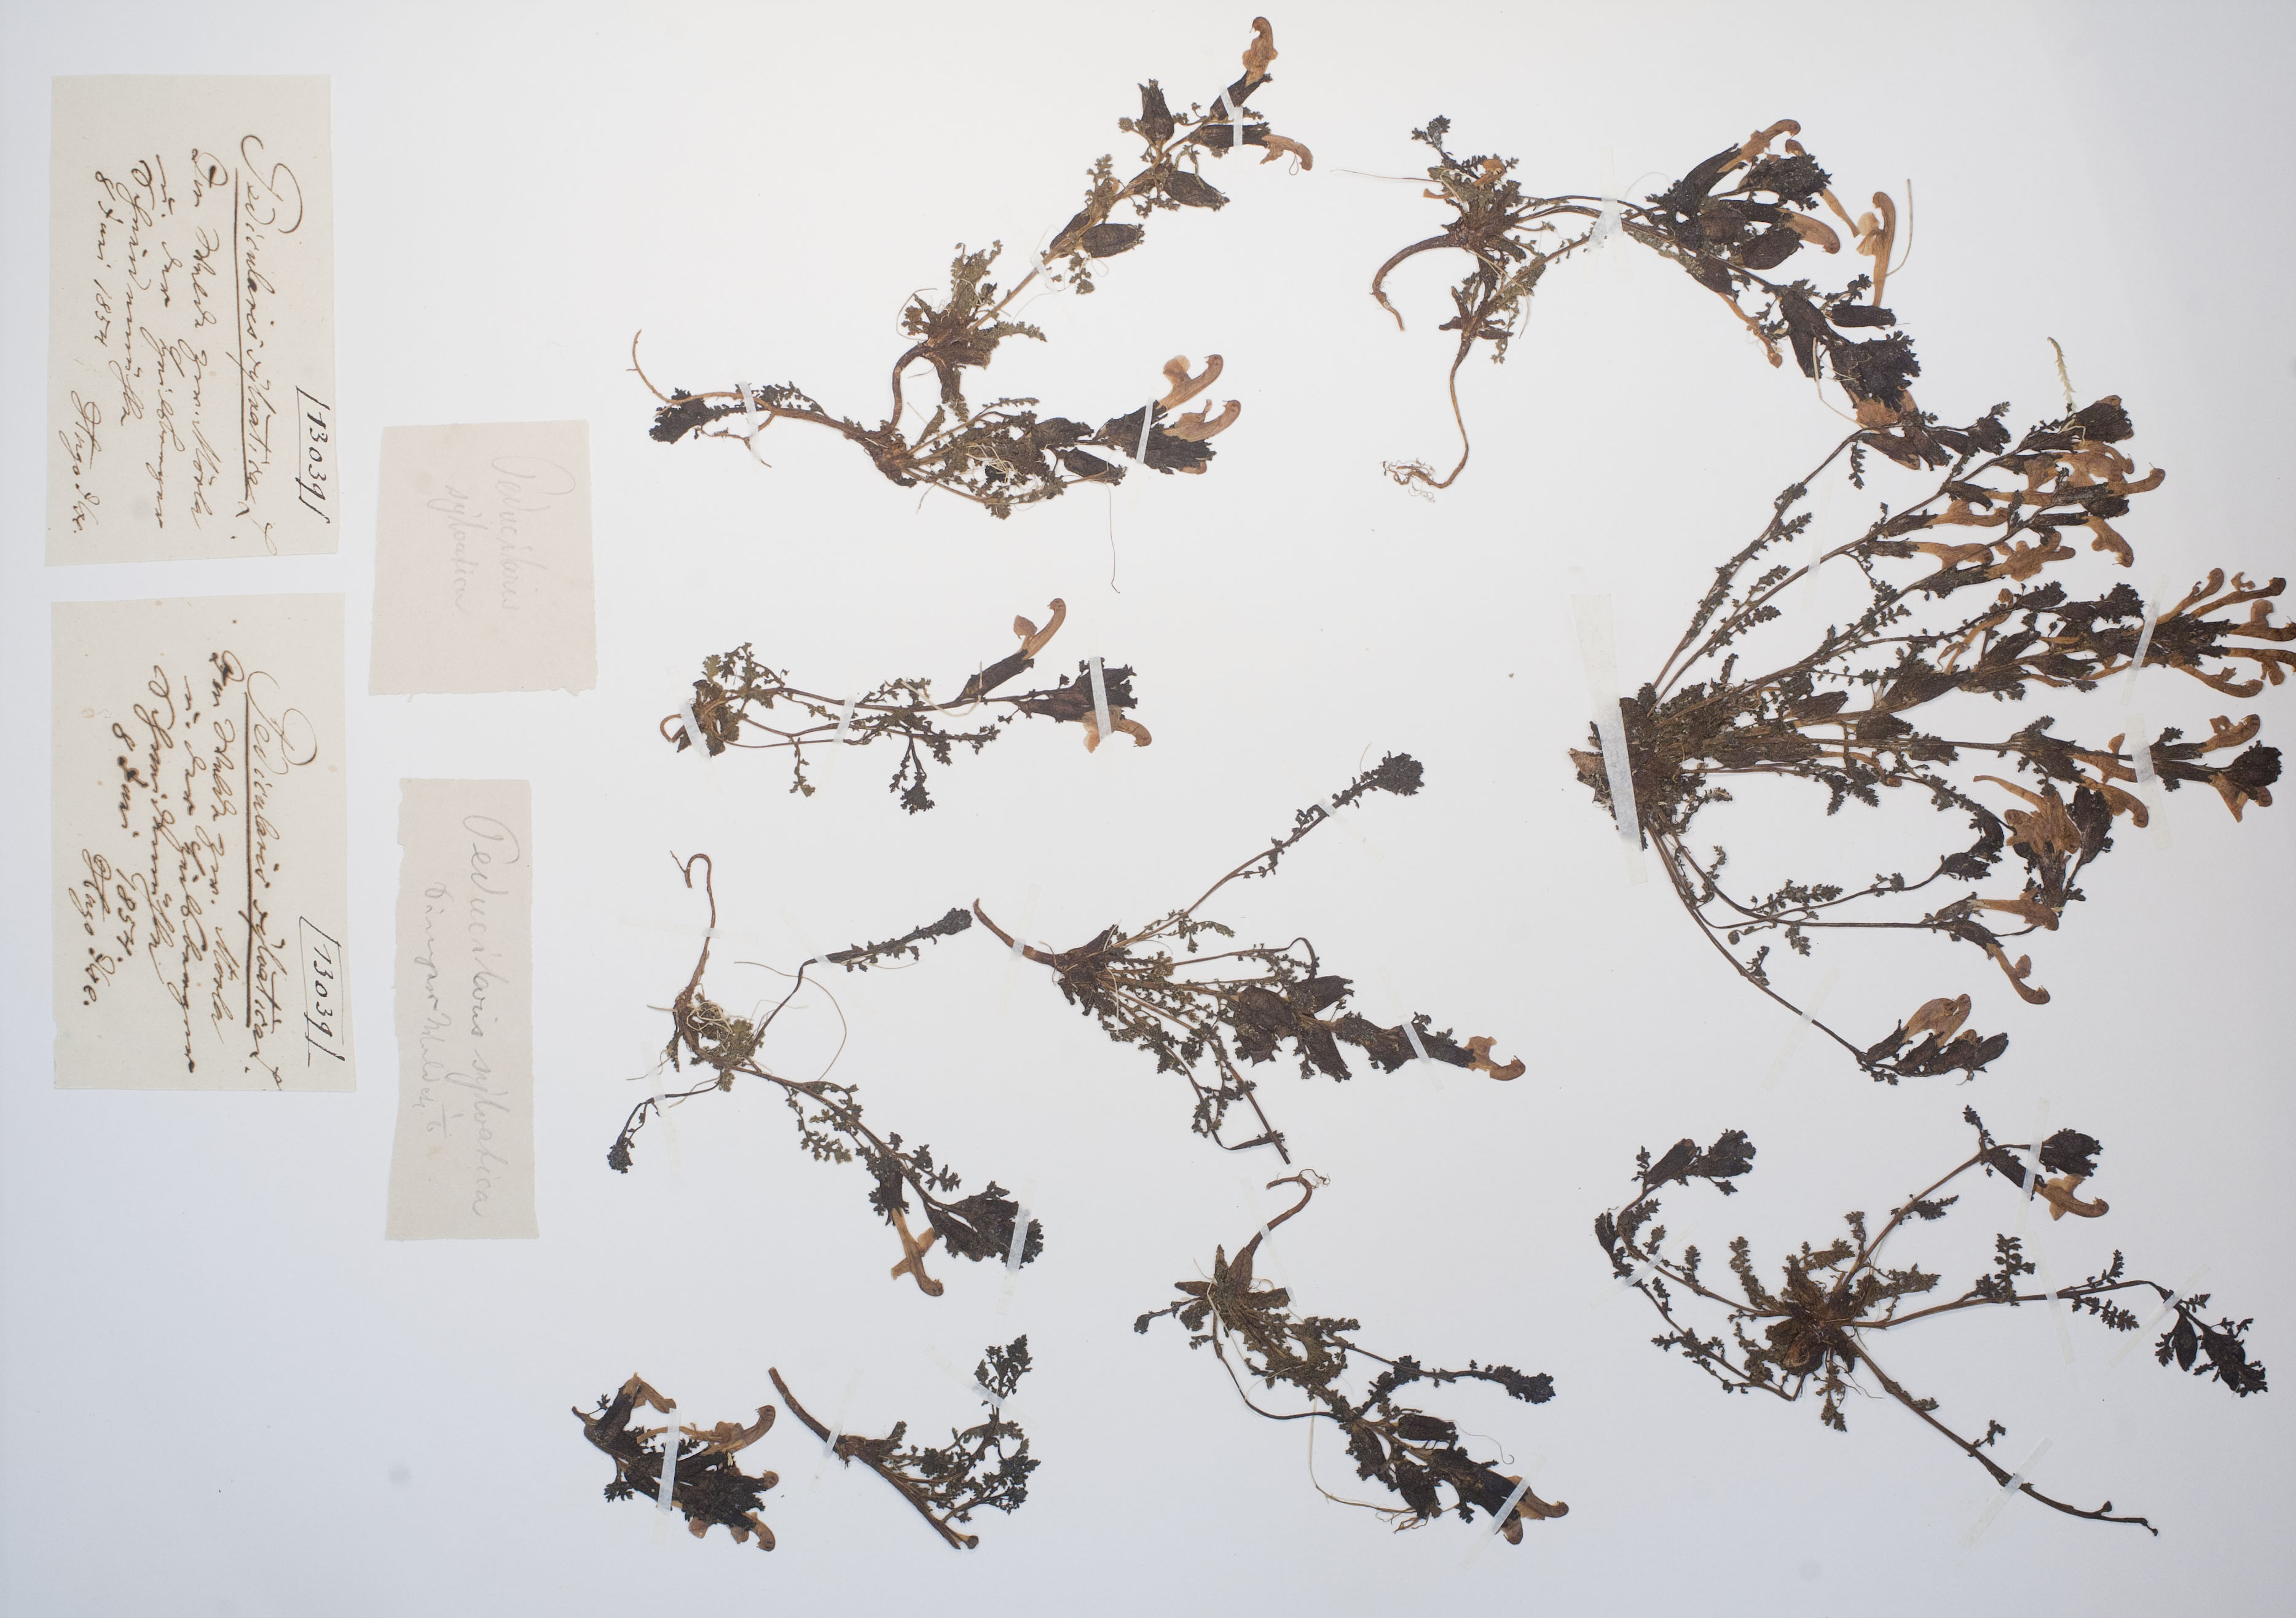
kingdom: Plantae
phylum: Tracheophyta
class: Magnoliopsida
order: Lamiales
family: Orobanchaceae
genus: Pedicularis
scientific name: Pedicularis sylvatica
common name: Lousewort
